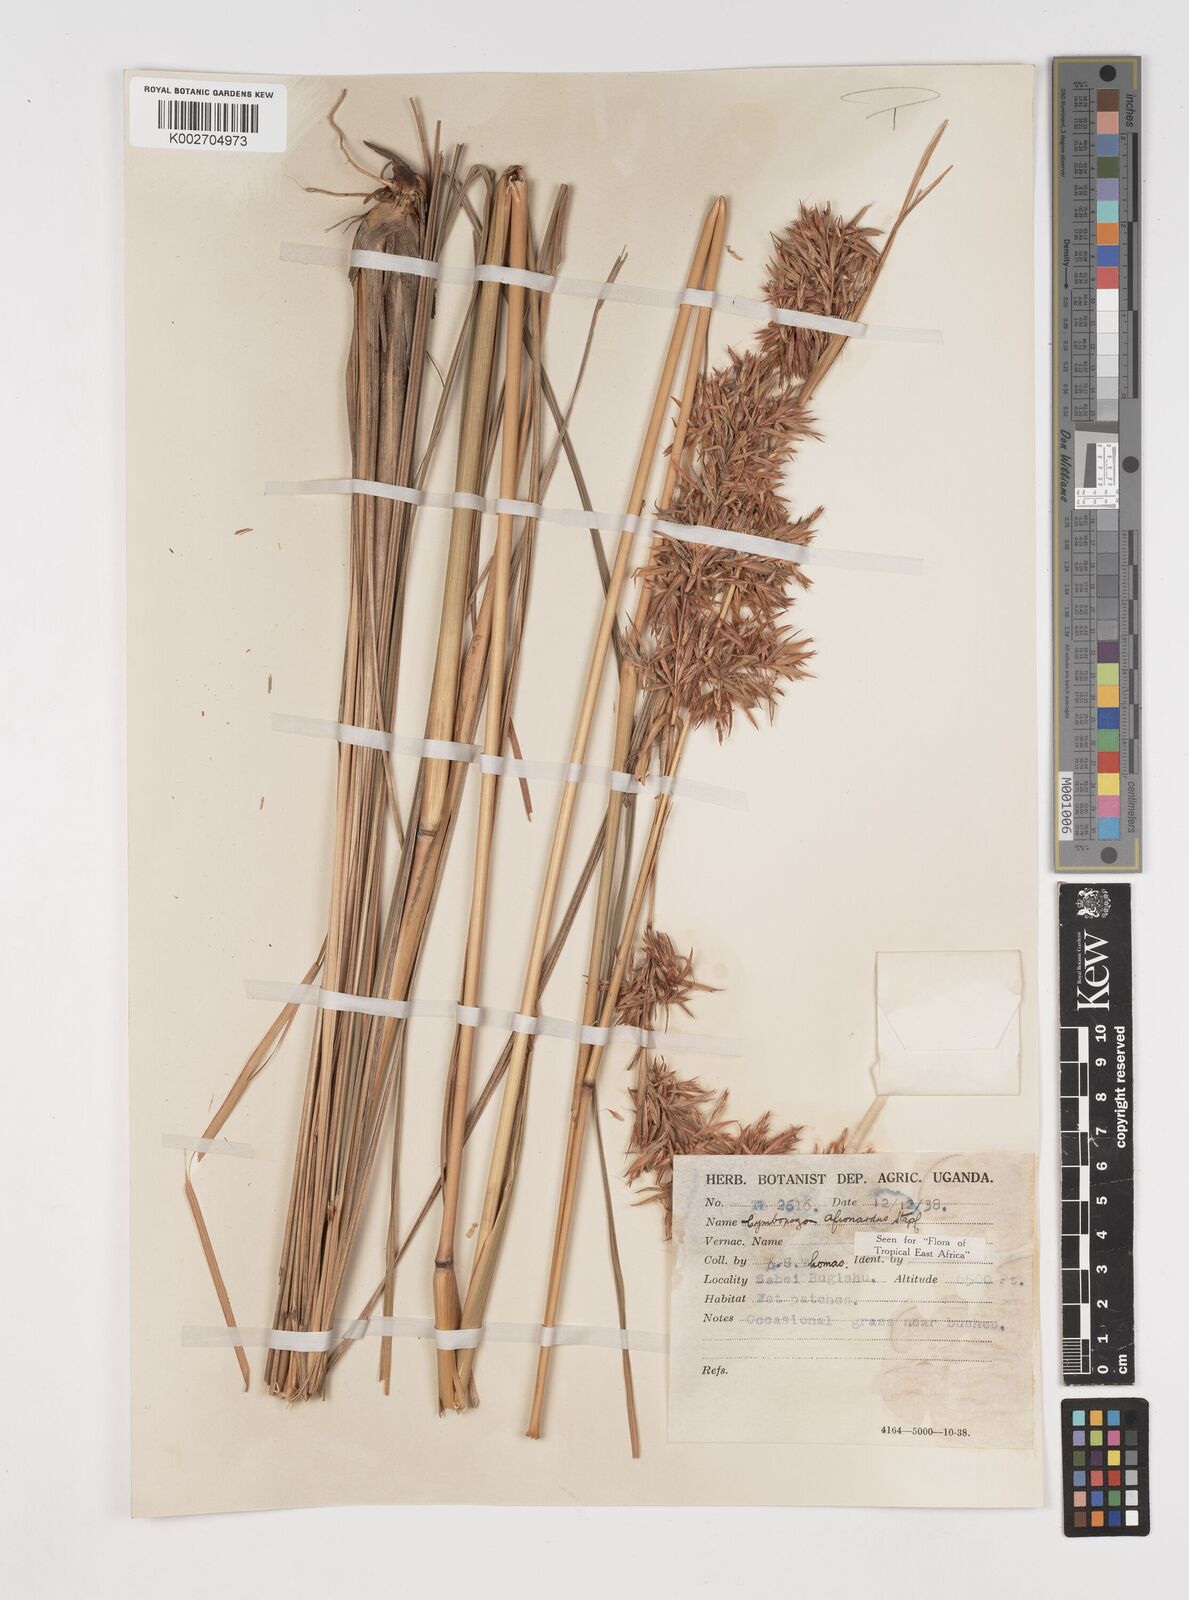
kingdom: Plantae
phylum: Tracheophyta
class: Liliopsida
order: Poales
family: Poaceae
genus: Cymbopogon
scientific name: Cymbopogon nardus
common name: Giant turpentine grass
